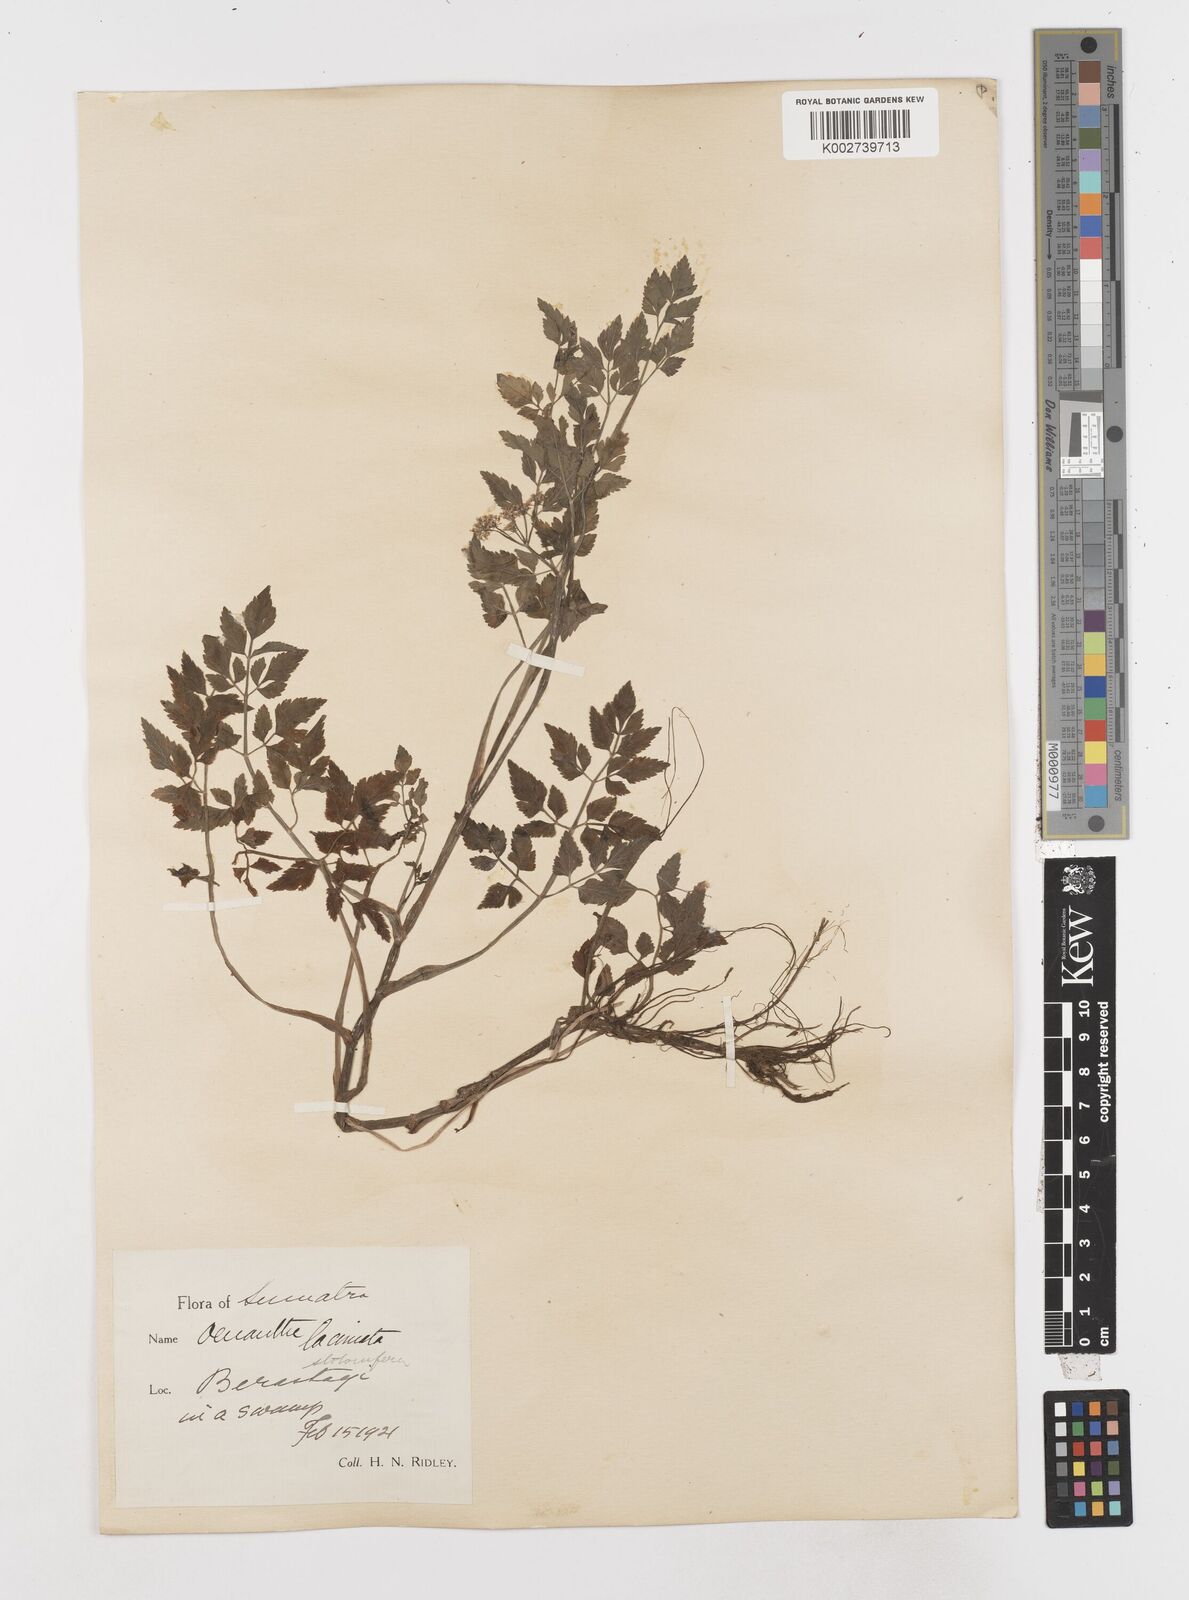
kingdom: Plantae
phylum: Tracheophyta
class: Magnoliopsida
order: Apiales
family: Apiaceae
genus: Oenanthe
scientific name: Oenanthe javanica
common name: Java water-dropwort
